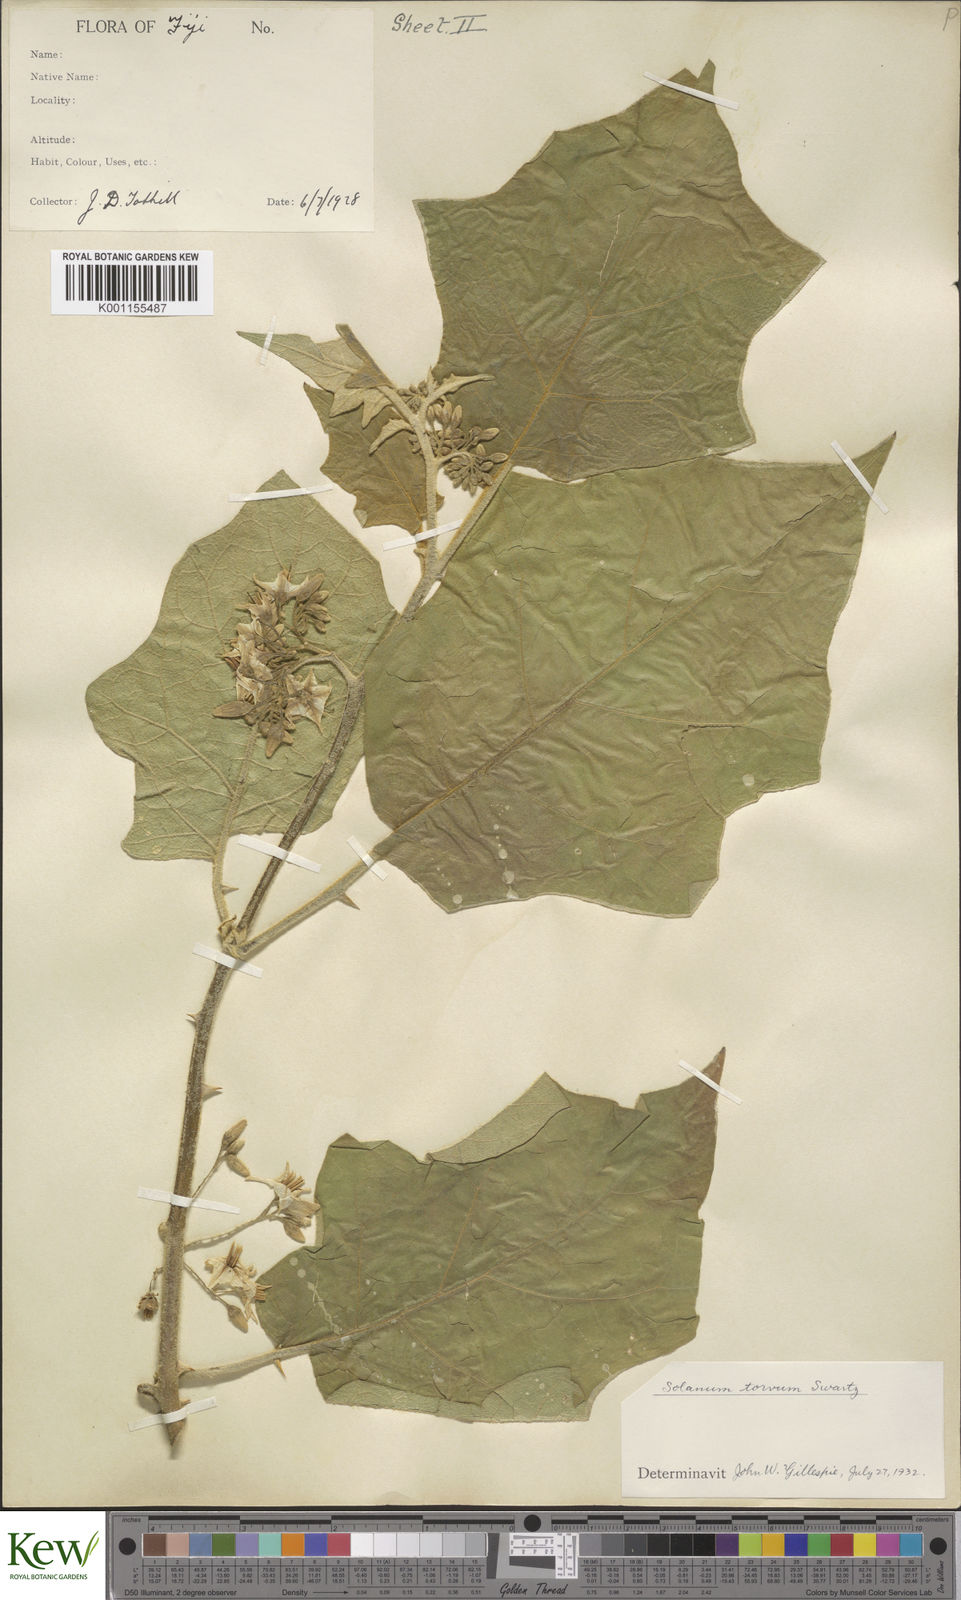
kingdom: Plantae
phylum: Tracheophyta
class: Magnoliopsida
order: Solanales
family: Solanaceae
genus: Solanum
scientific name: Solanum torvum
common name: Turkey berry
